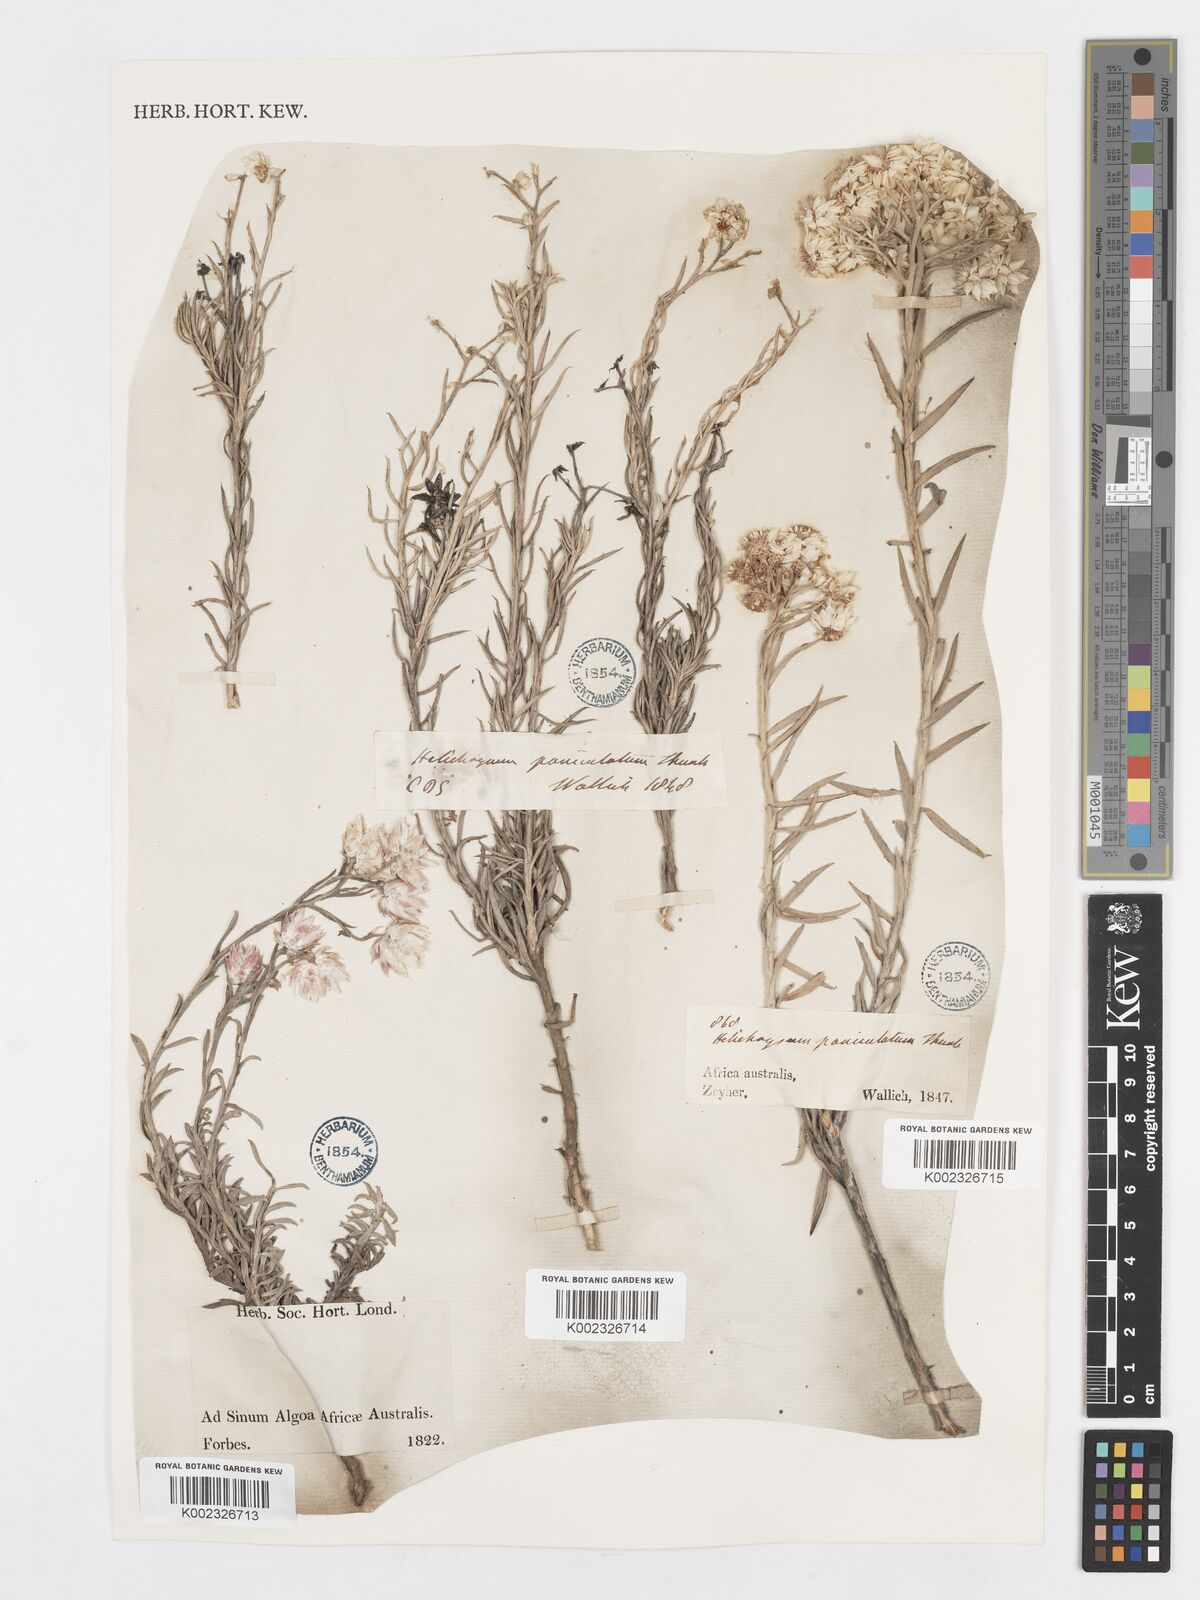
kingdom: Plantae
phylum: Tracheophyta
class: Magnoliopsida
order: Asterales
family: Asteraceae
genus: Achyranthemum
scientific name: Achyranthemum paniculatum
